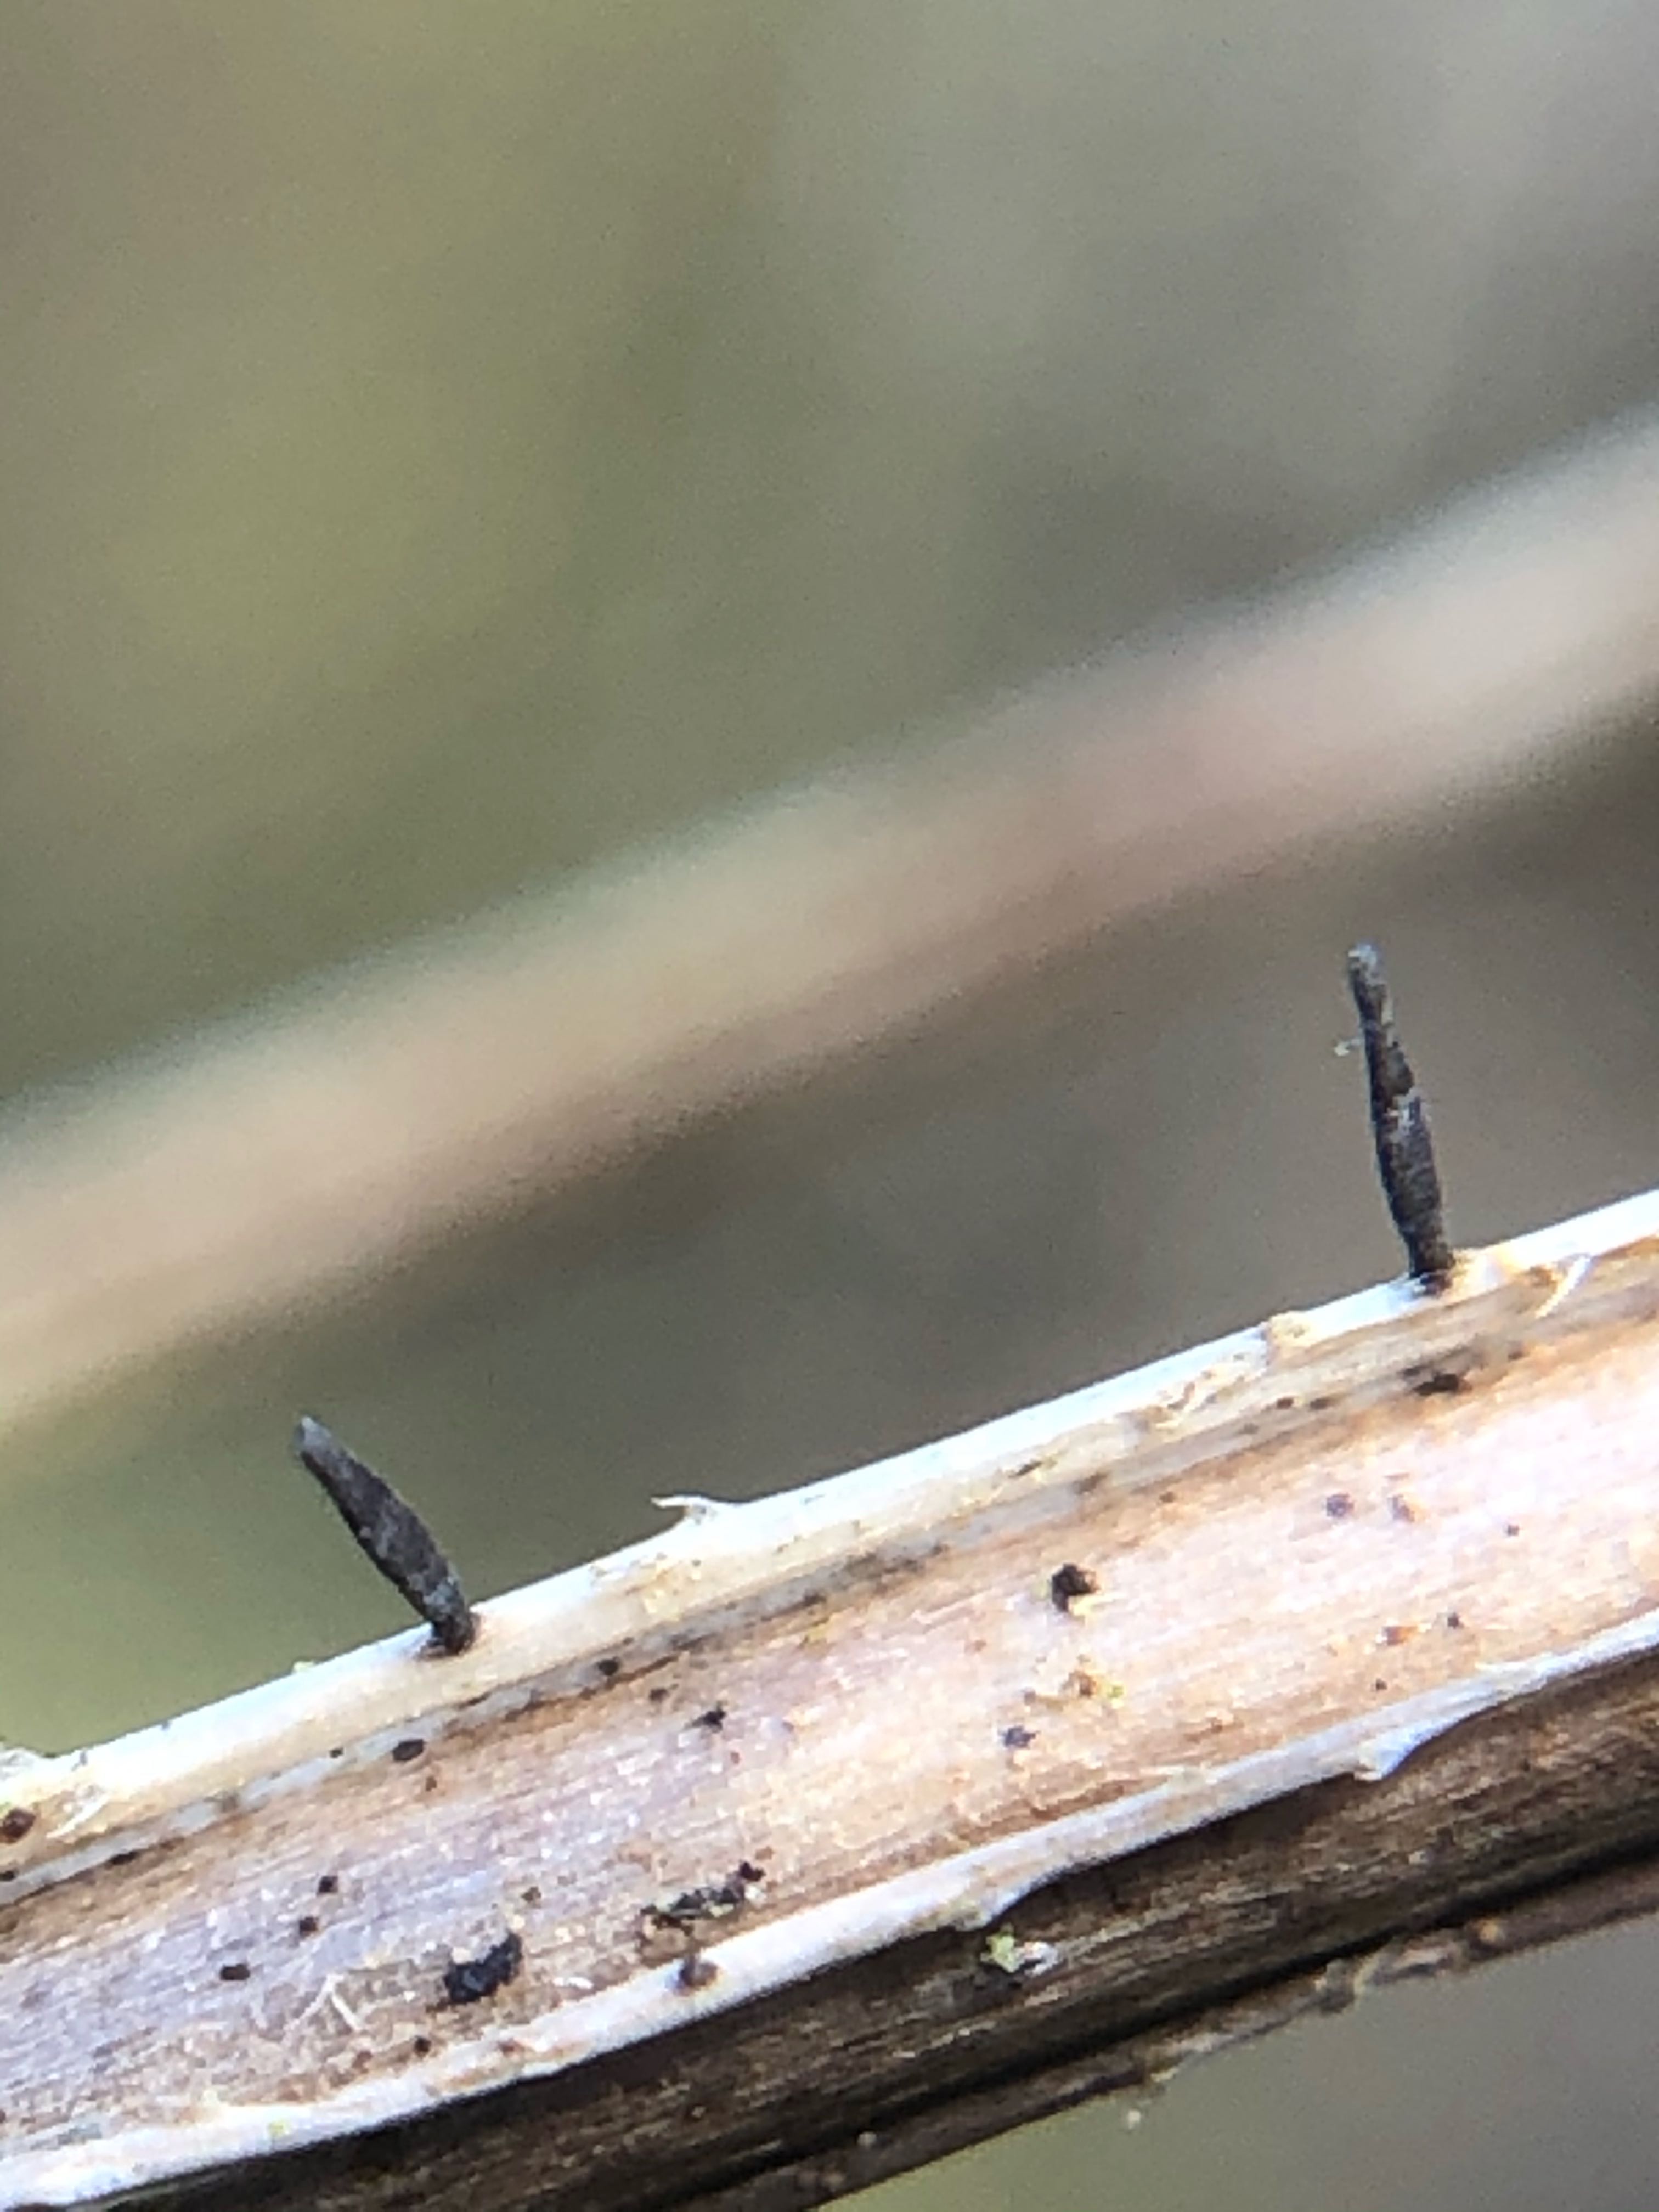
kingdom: Fungi
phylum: Ascomycota
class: Dothideomycetes
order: Acrospermales
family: Acrospermaceae
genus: Acrospermum
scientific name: Acrospermum pallidulum
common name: snerre-stængeltunge
